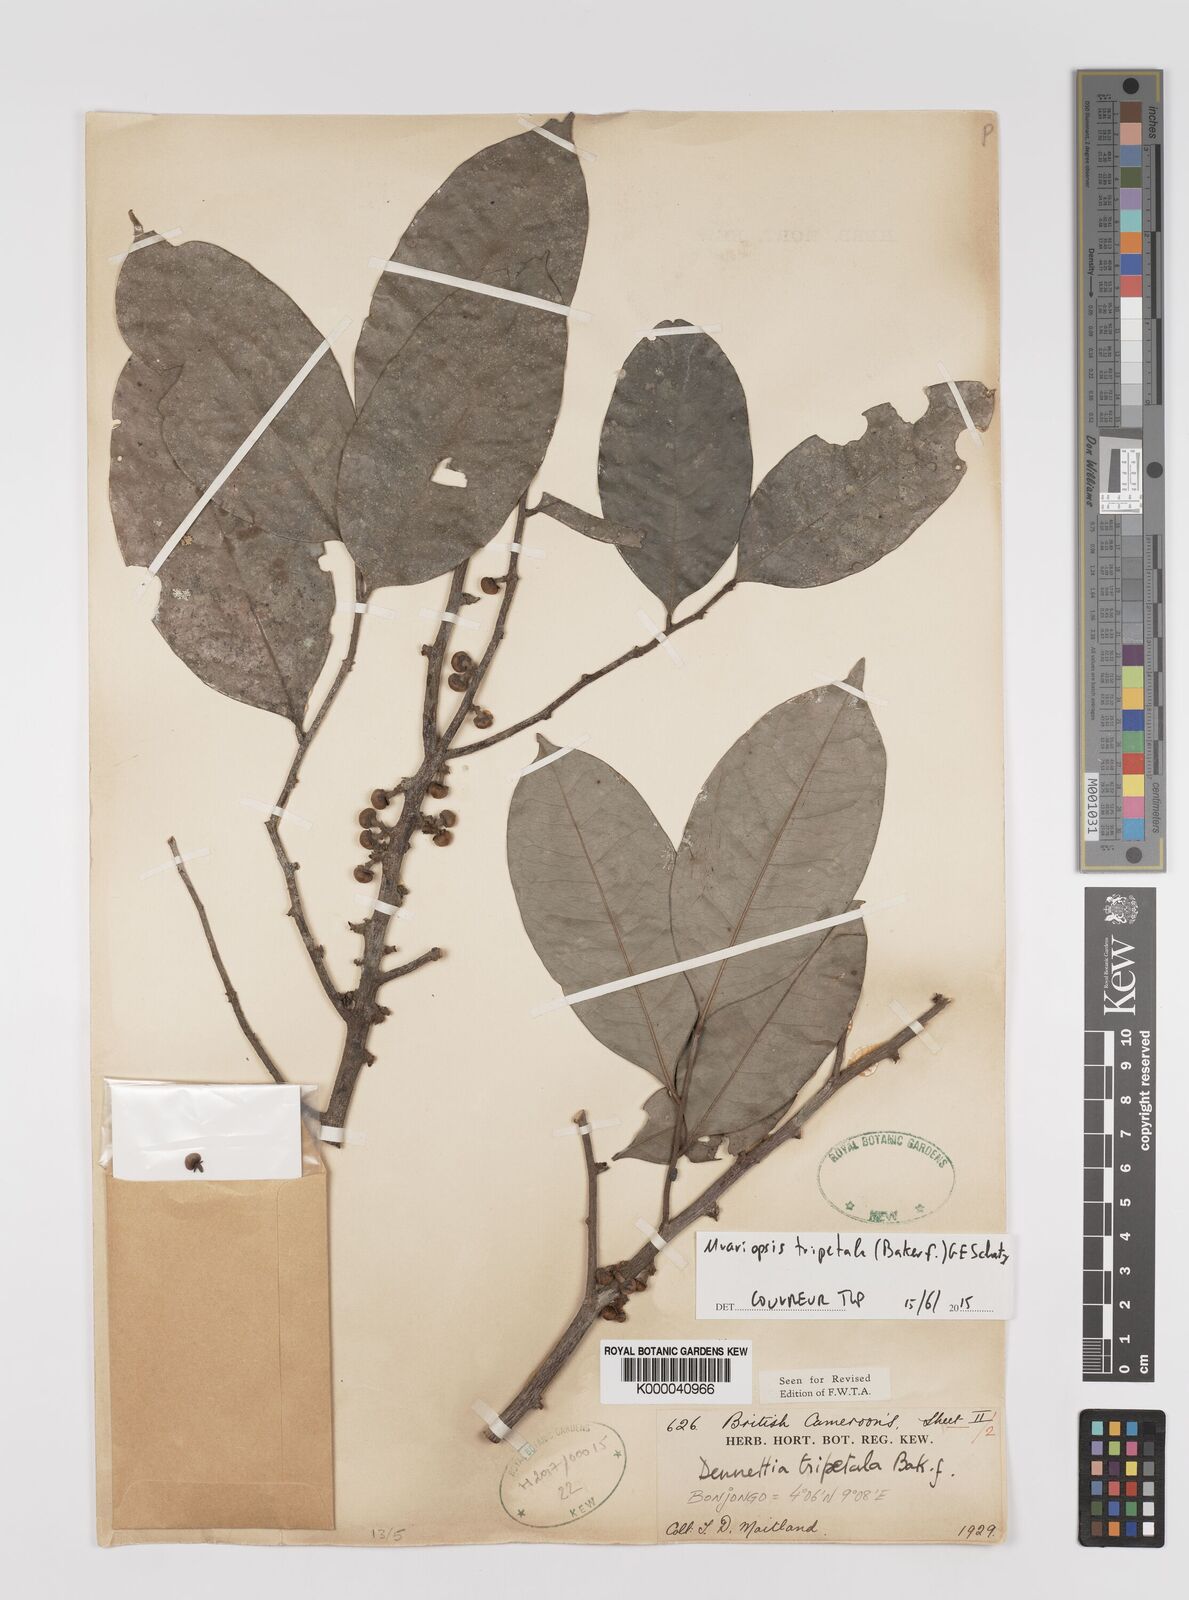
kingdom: Plantae
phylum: Tracheophyta
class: Magnoliopsida
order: Magnoliales
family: Annonaceae
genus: Uvariopsis
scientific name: Uvariopsis tripetala
